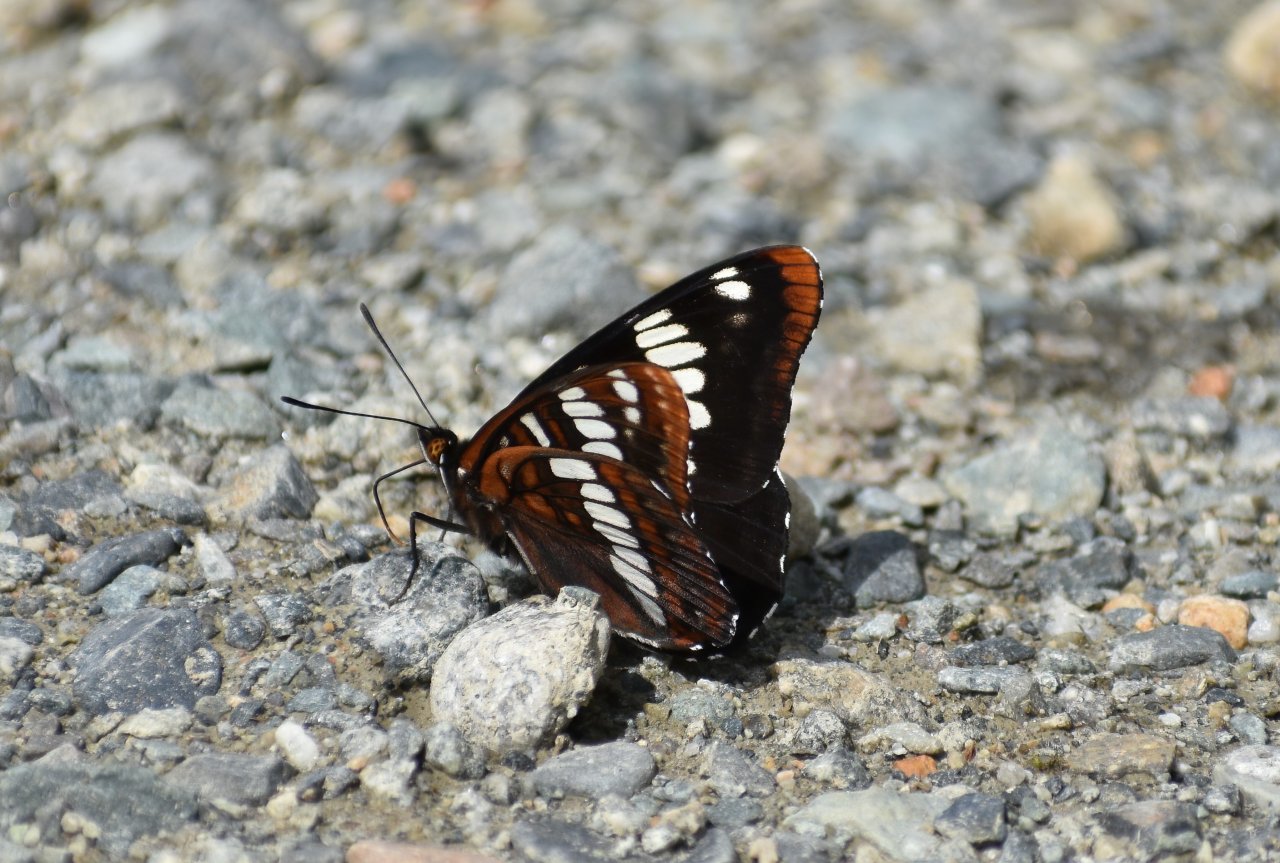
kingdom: Animalia
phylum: Arthropoda
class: Insecta
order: Lepidoptera
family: Nymphalidae
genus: Limenitis
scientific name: Limenitis lorquini
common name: Lorquin's Admiral
